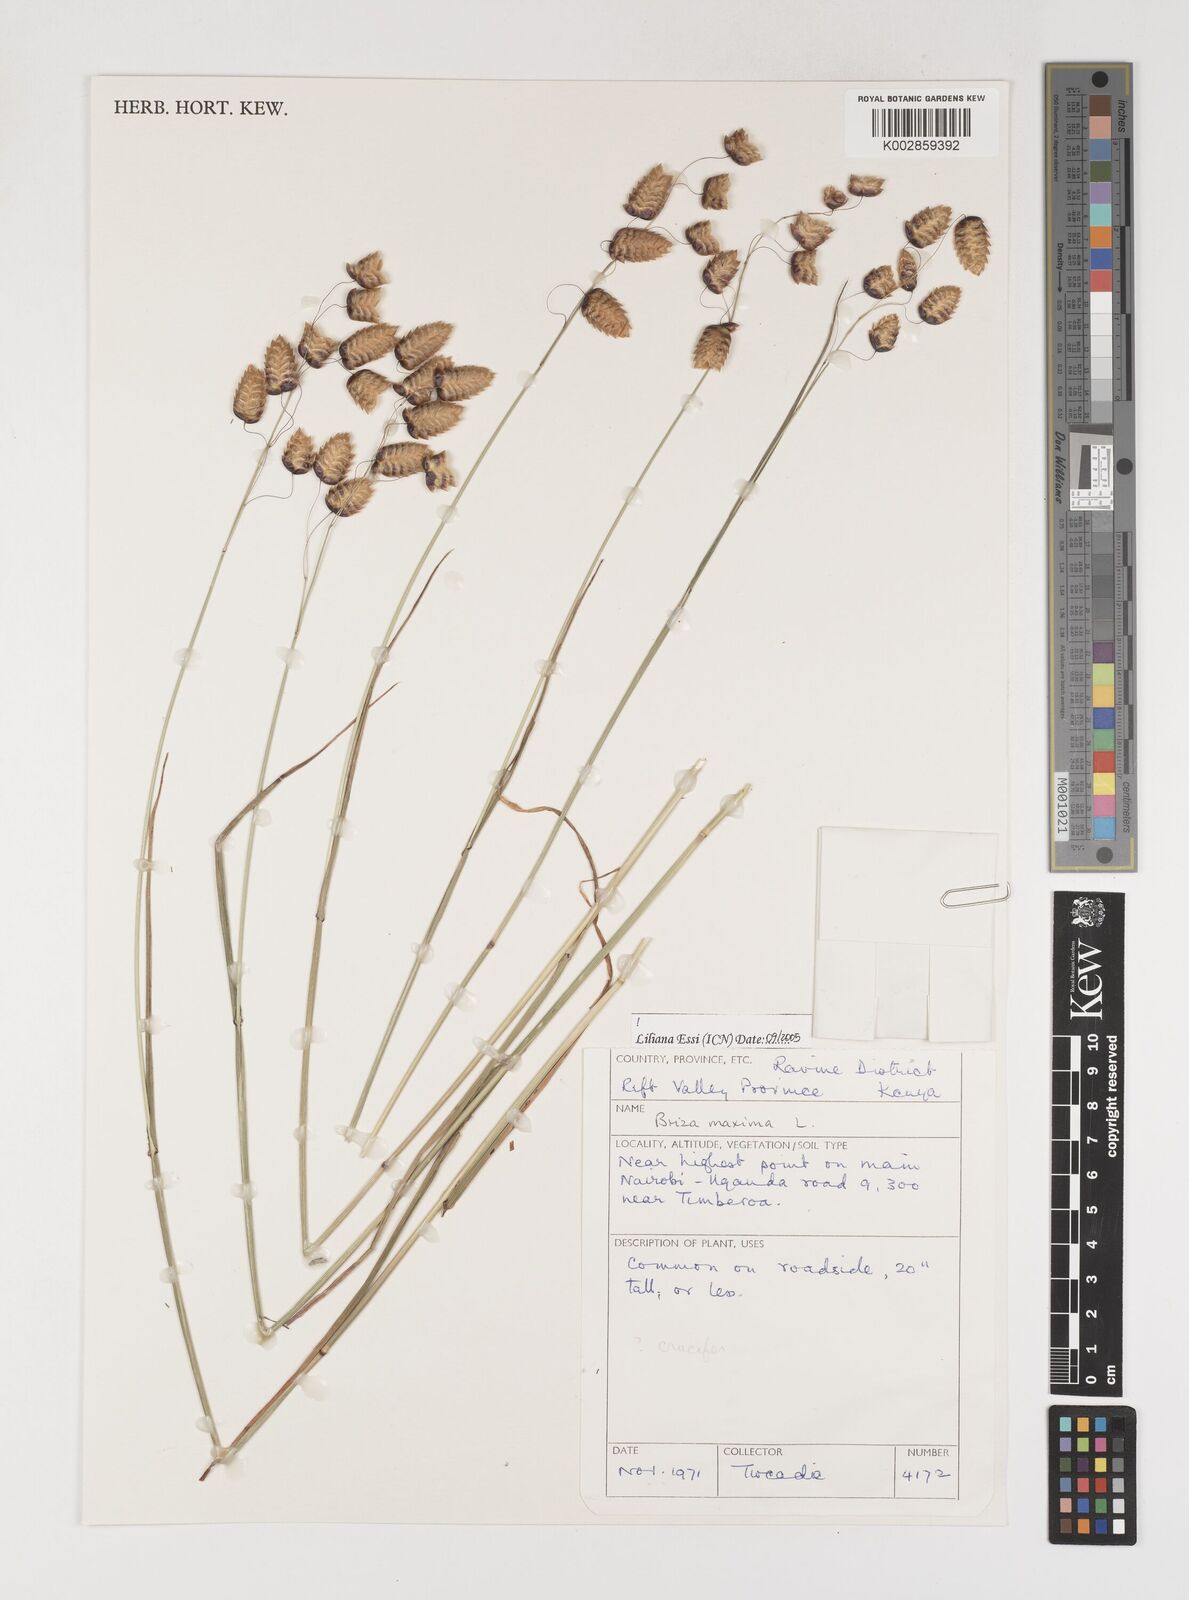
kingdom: Plantae
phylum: Tracheophyta
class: Liliopsida
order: Poales
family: Poaceae
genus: Briza
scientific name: Briza maxima
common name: Big quakinggrass
